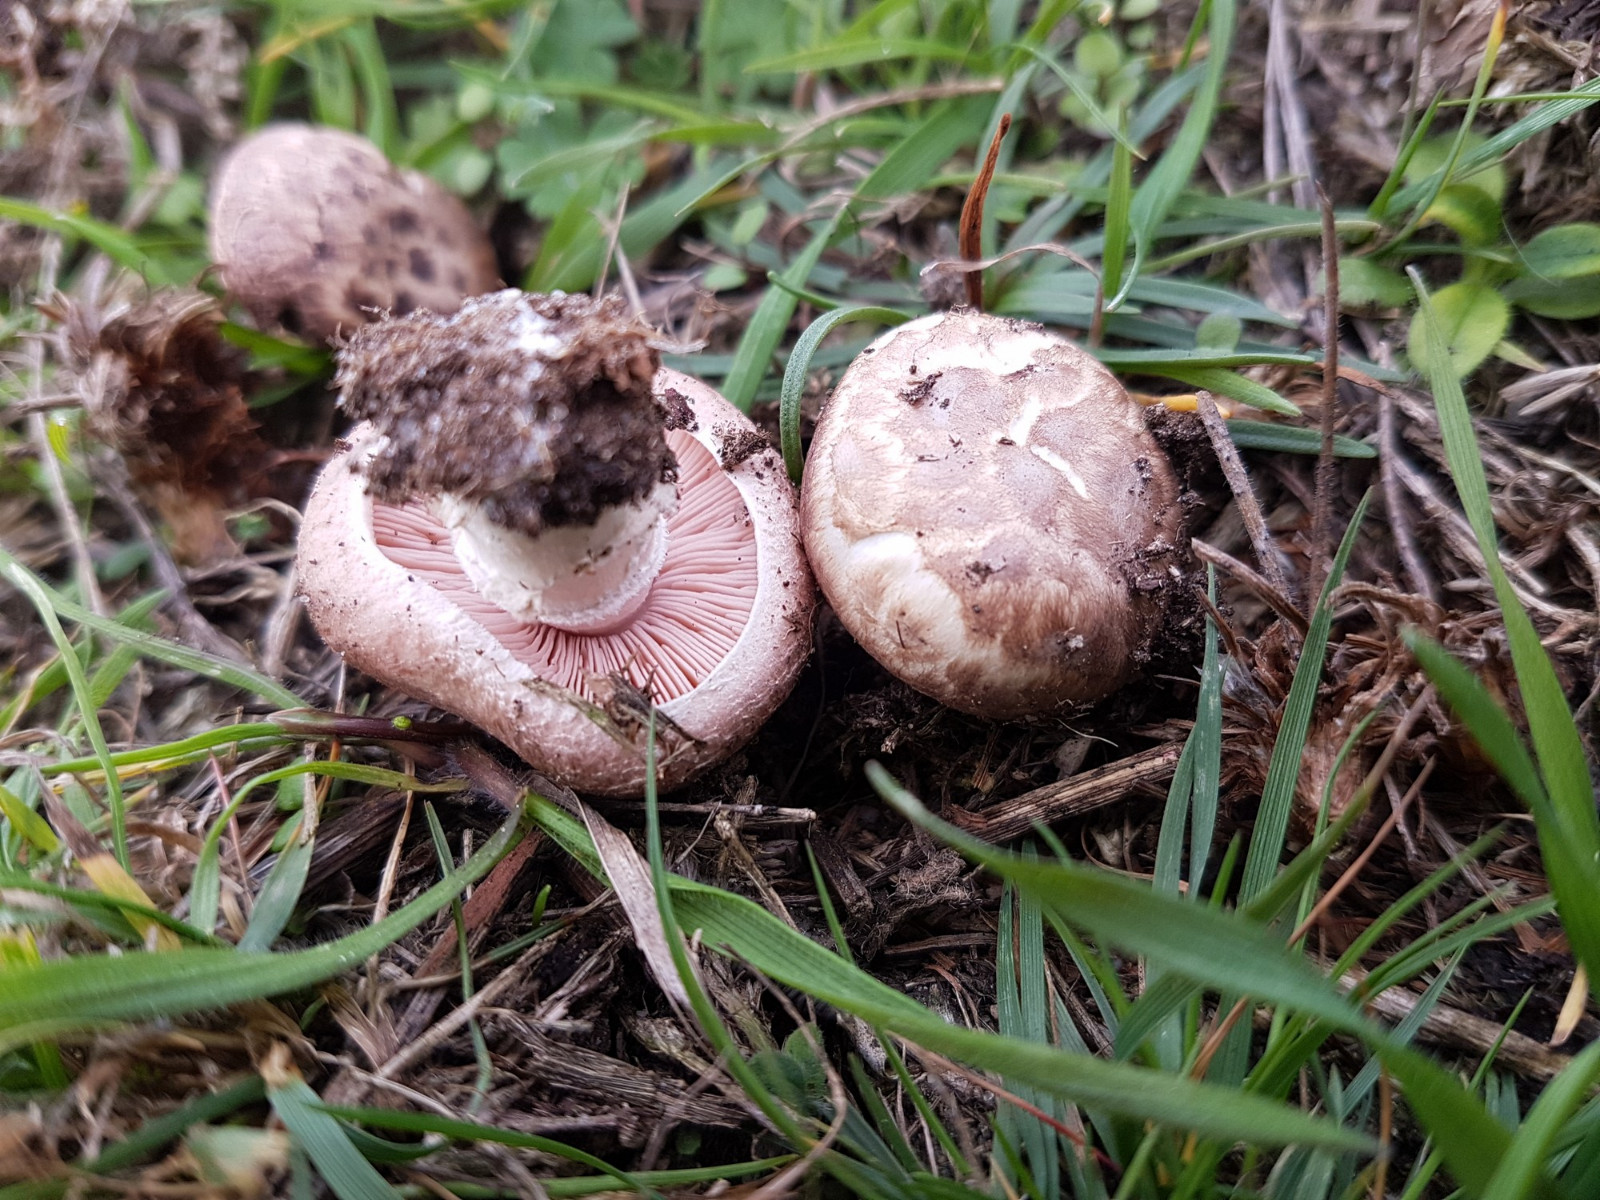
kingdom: Fungi
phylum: Basidiomycota
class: Agaricomycetes
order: Agaricales
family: Agaricaceae
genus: Agaricus
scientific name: Agaricus cupreobrunneus
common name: kobberbrun champignon
